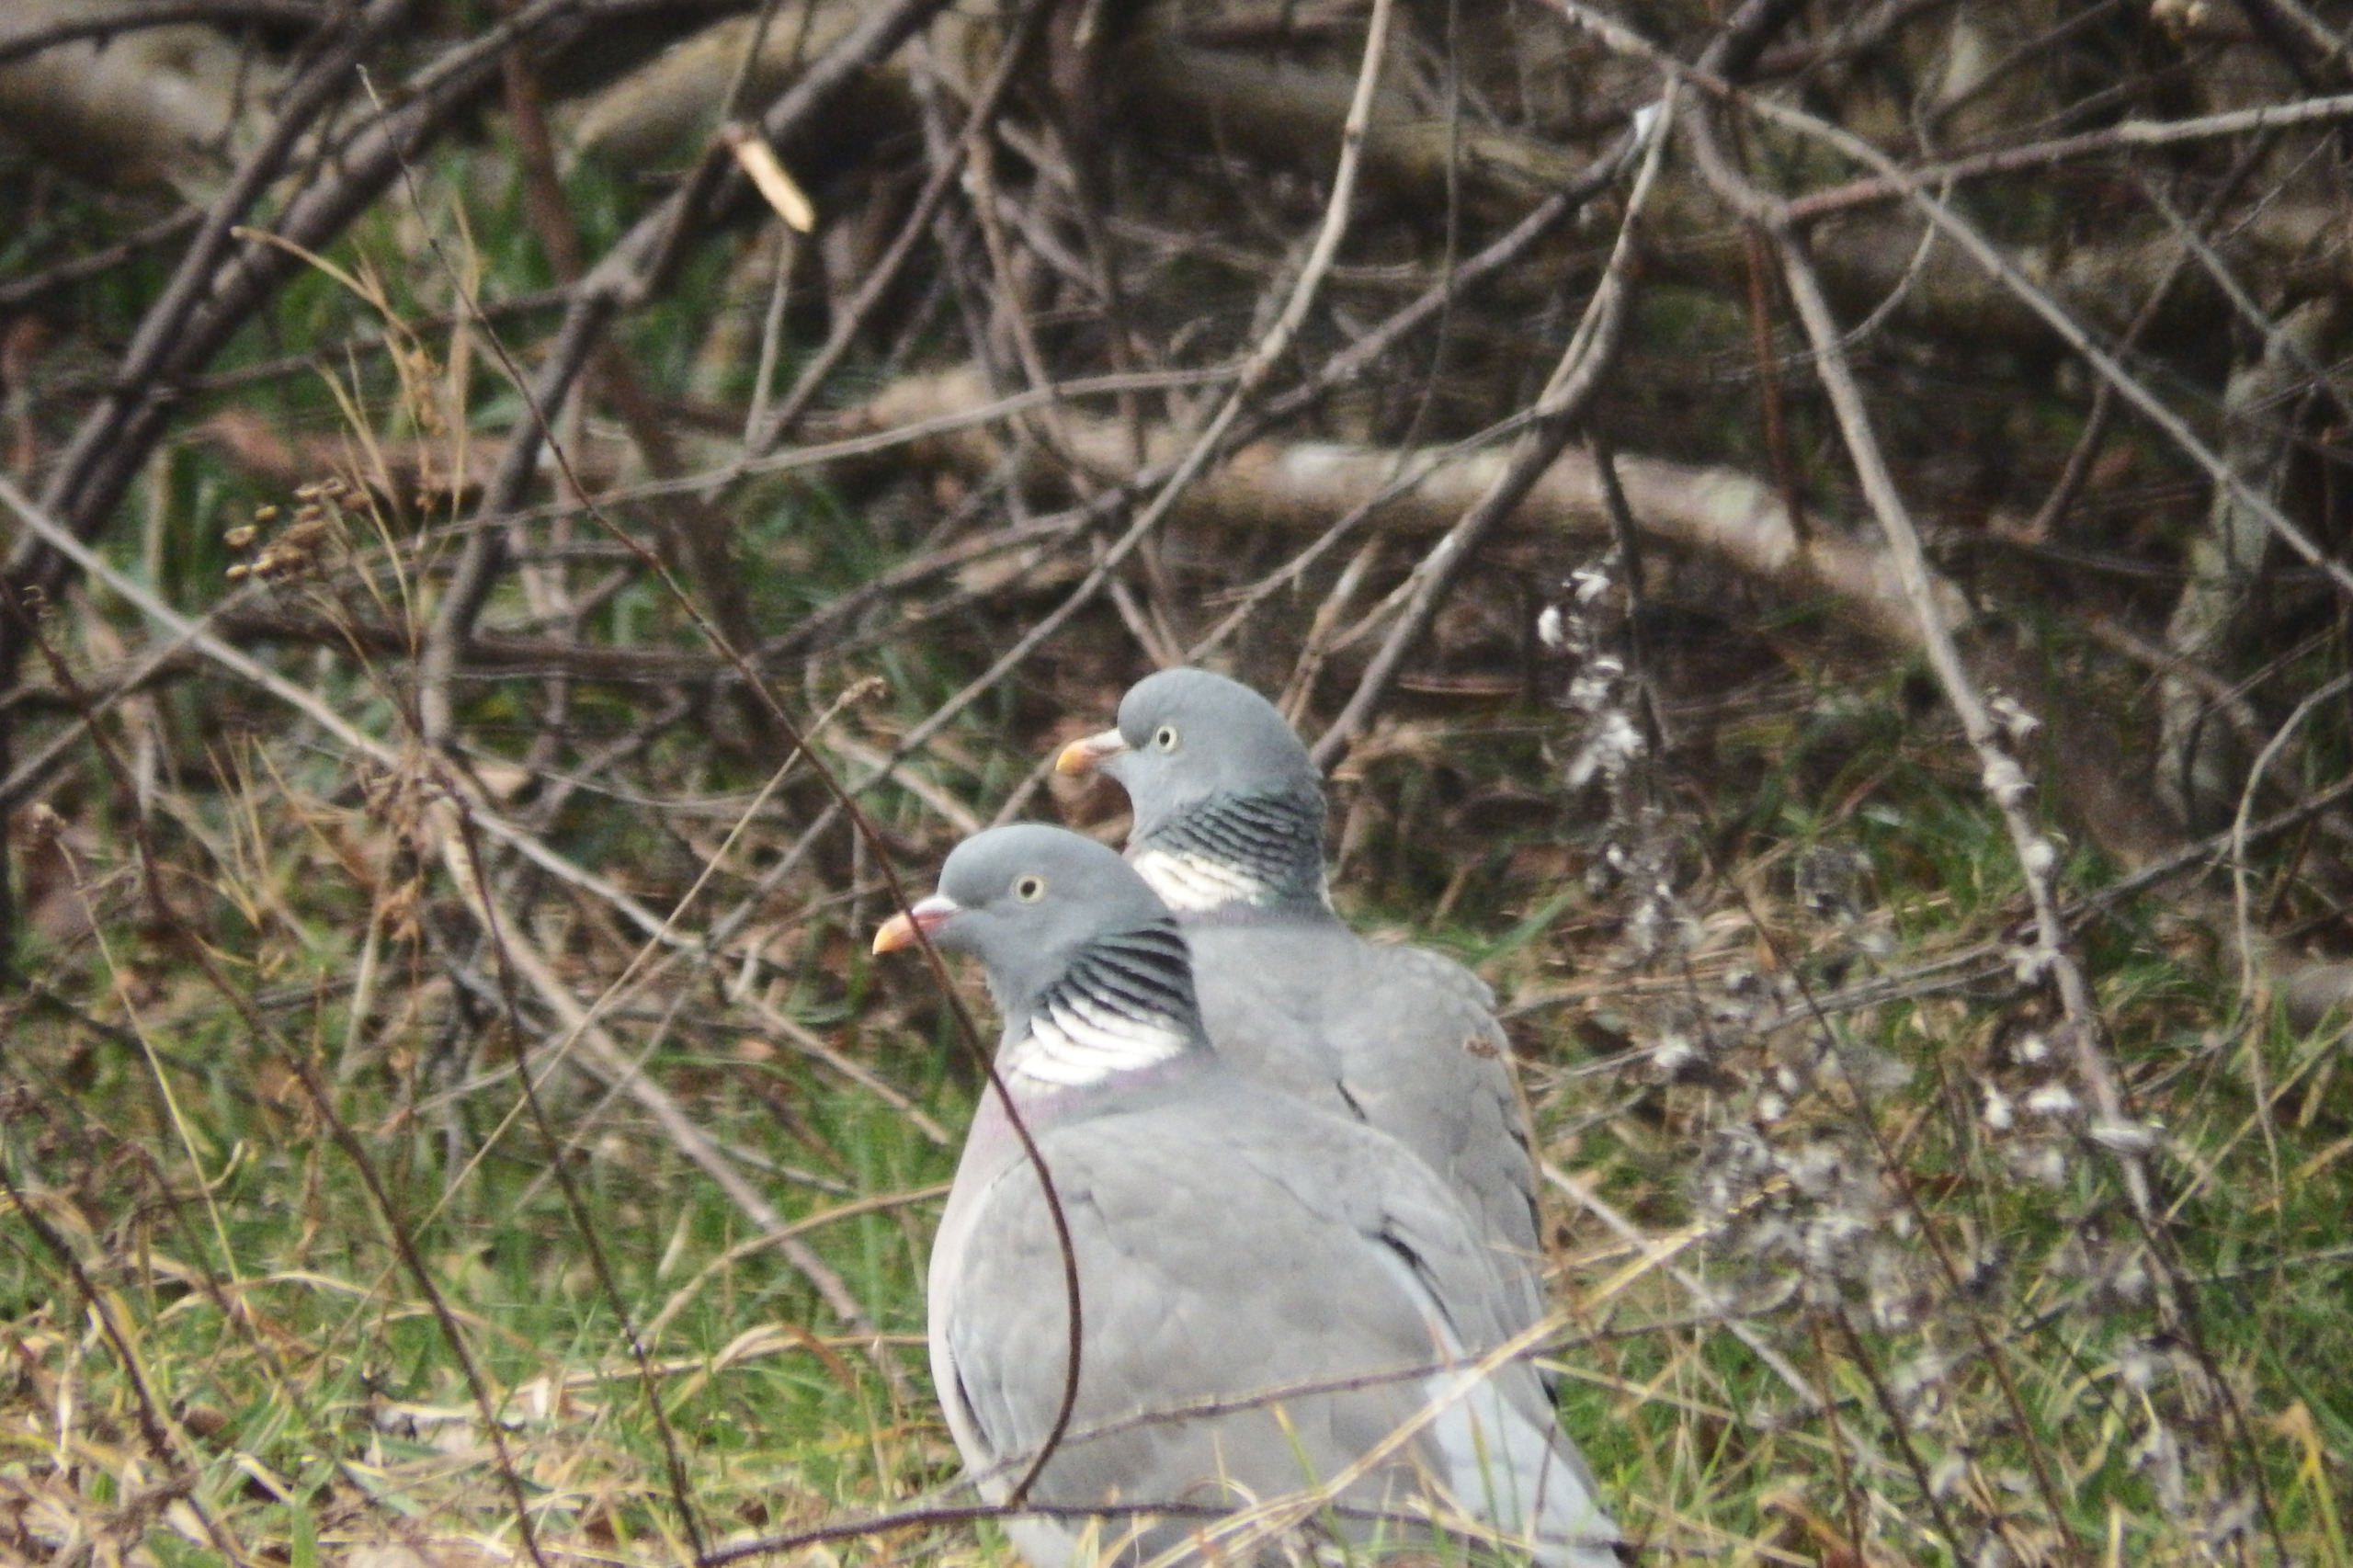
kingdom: Animalia
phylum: Chordata
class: Aves
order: Columbiformes
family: Columbidae
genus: Columba
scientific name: Columba palumbus
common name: Ringdue
